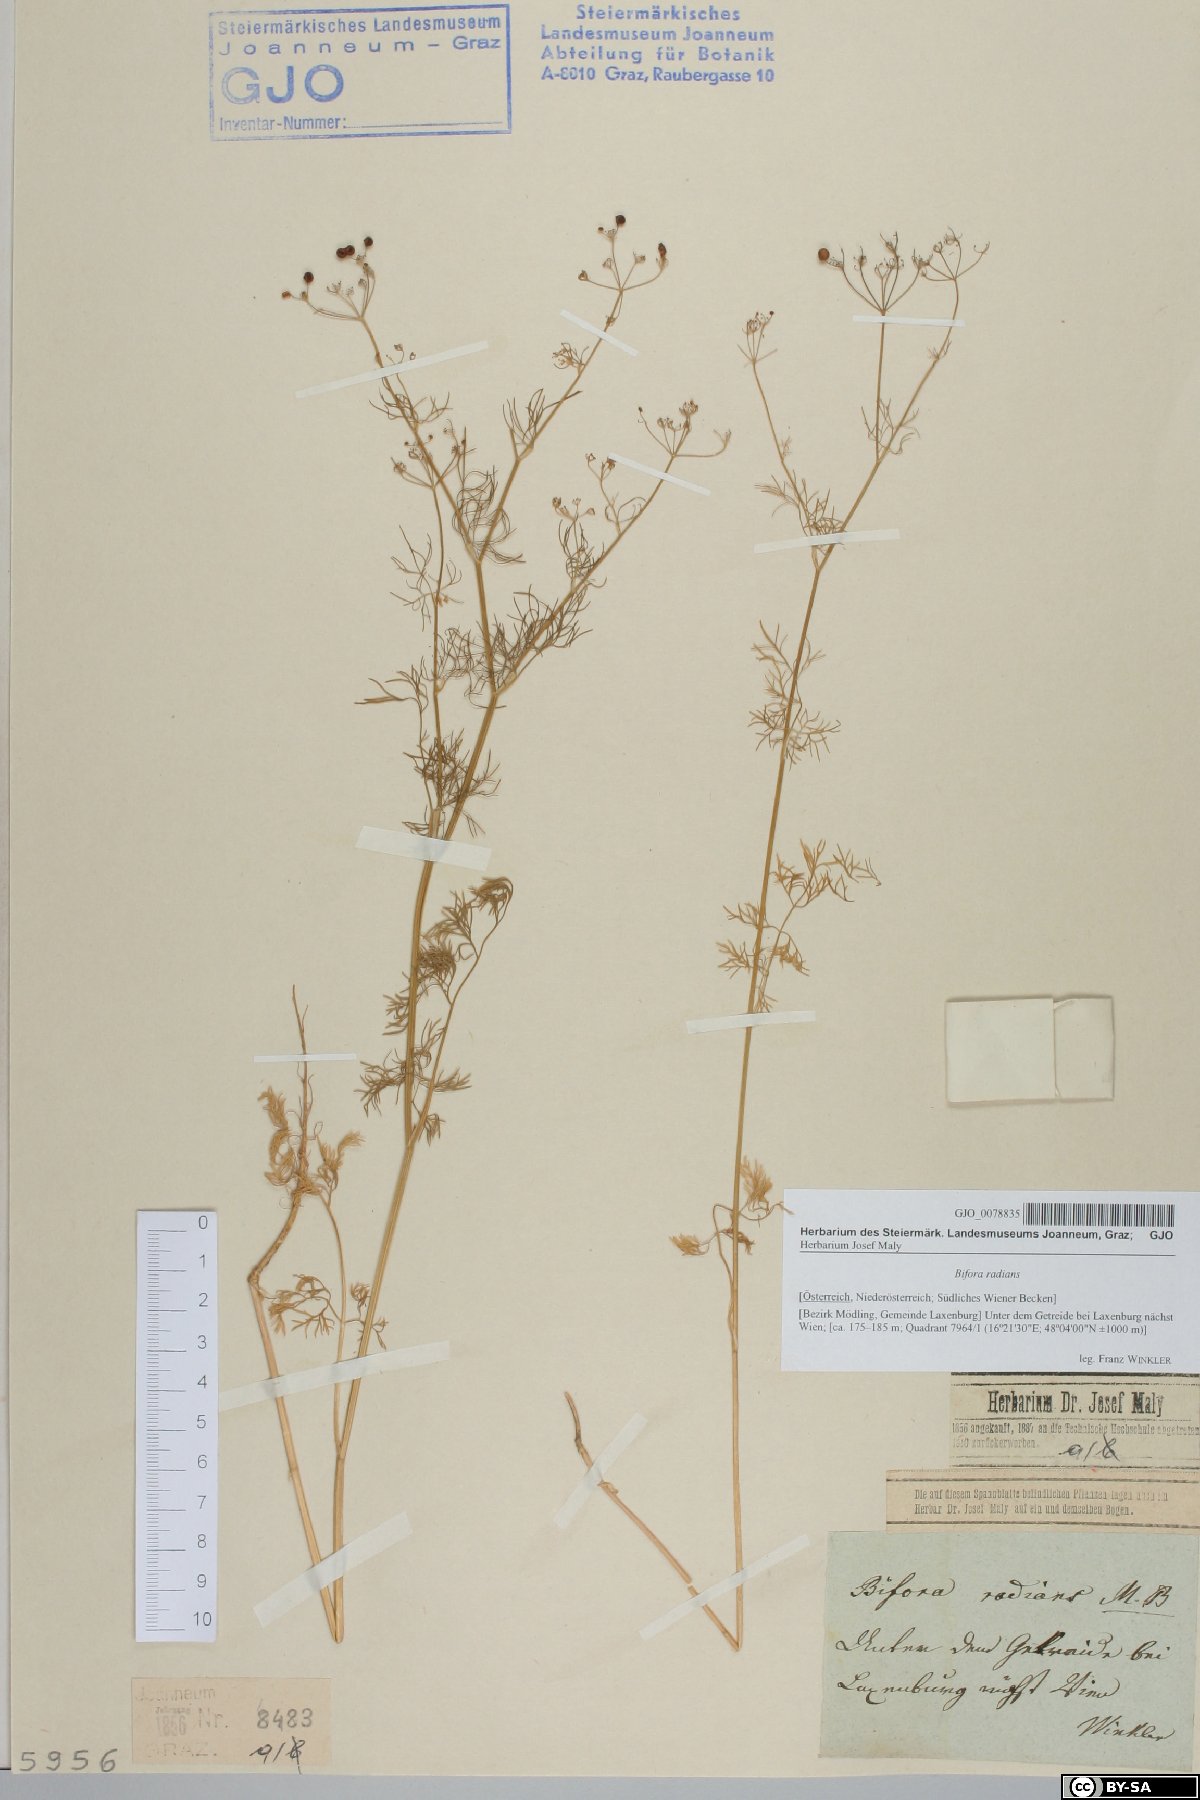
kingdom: Plantae
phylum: Tracheophyta
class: Magnoliopsida
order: Apiales
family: Apiaceae
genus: Bifora
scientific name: Bifora radians
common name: Wild bishop
